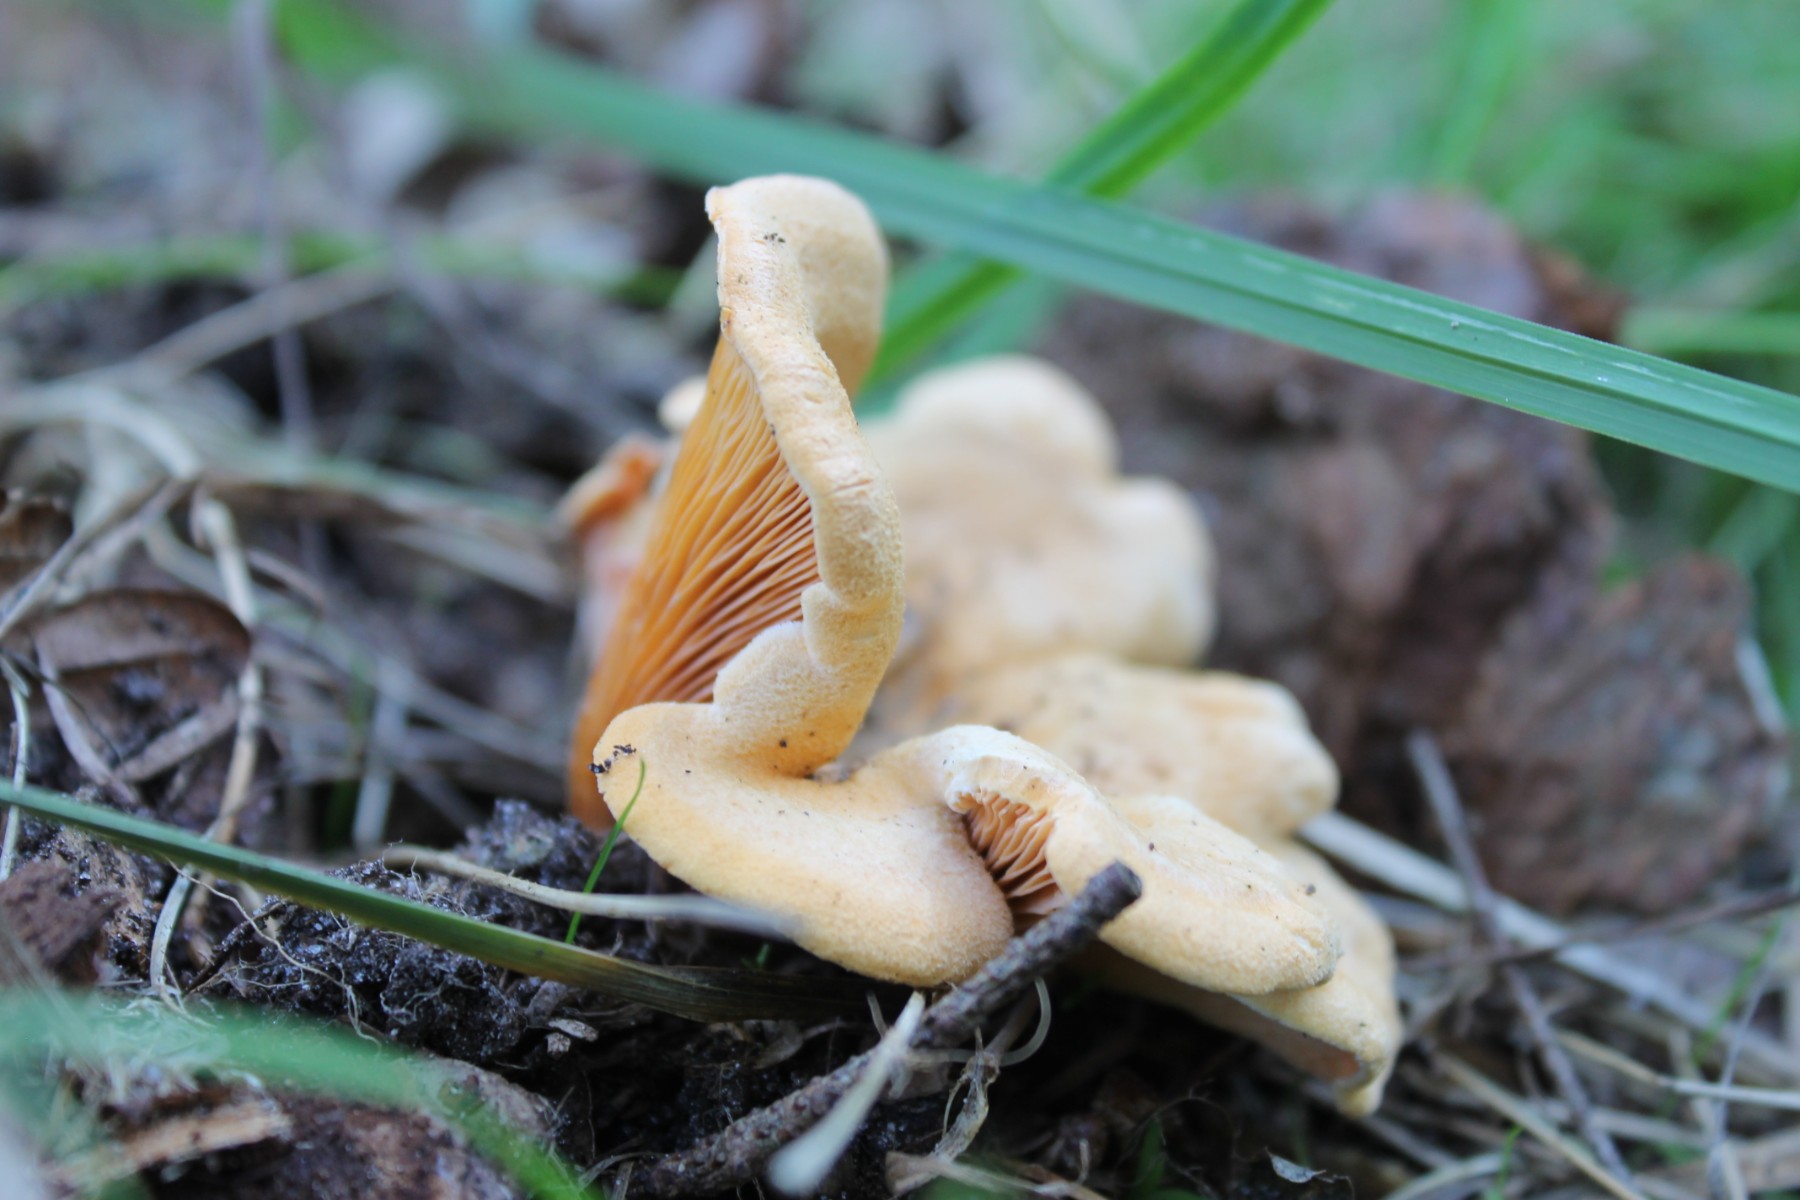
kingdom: Fungi
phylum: Basidiomycota
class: Agaricomycetes
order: Boletales
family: Hygrophoropsidaceae
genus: Hygrophoropsis
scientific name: Hygrophoropsis aurantiaca
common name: almindelig orangekantarel
